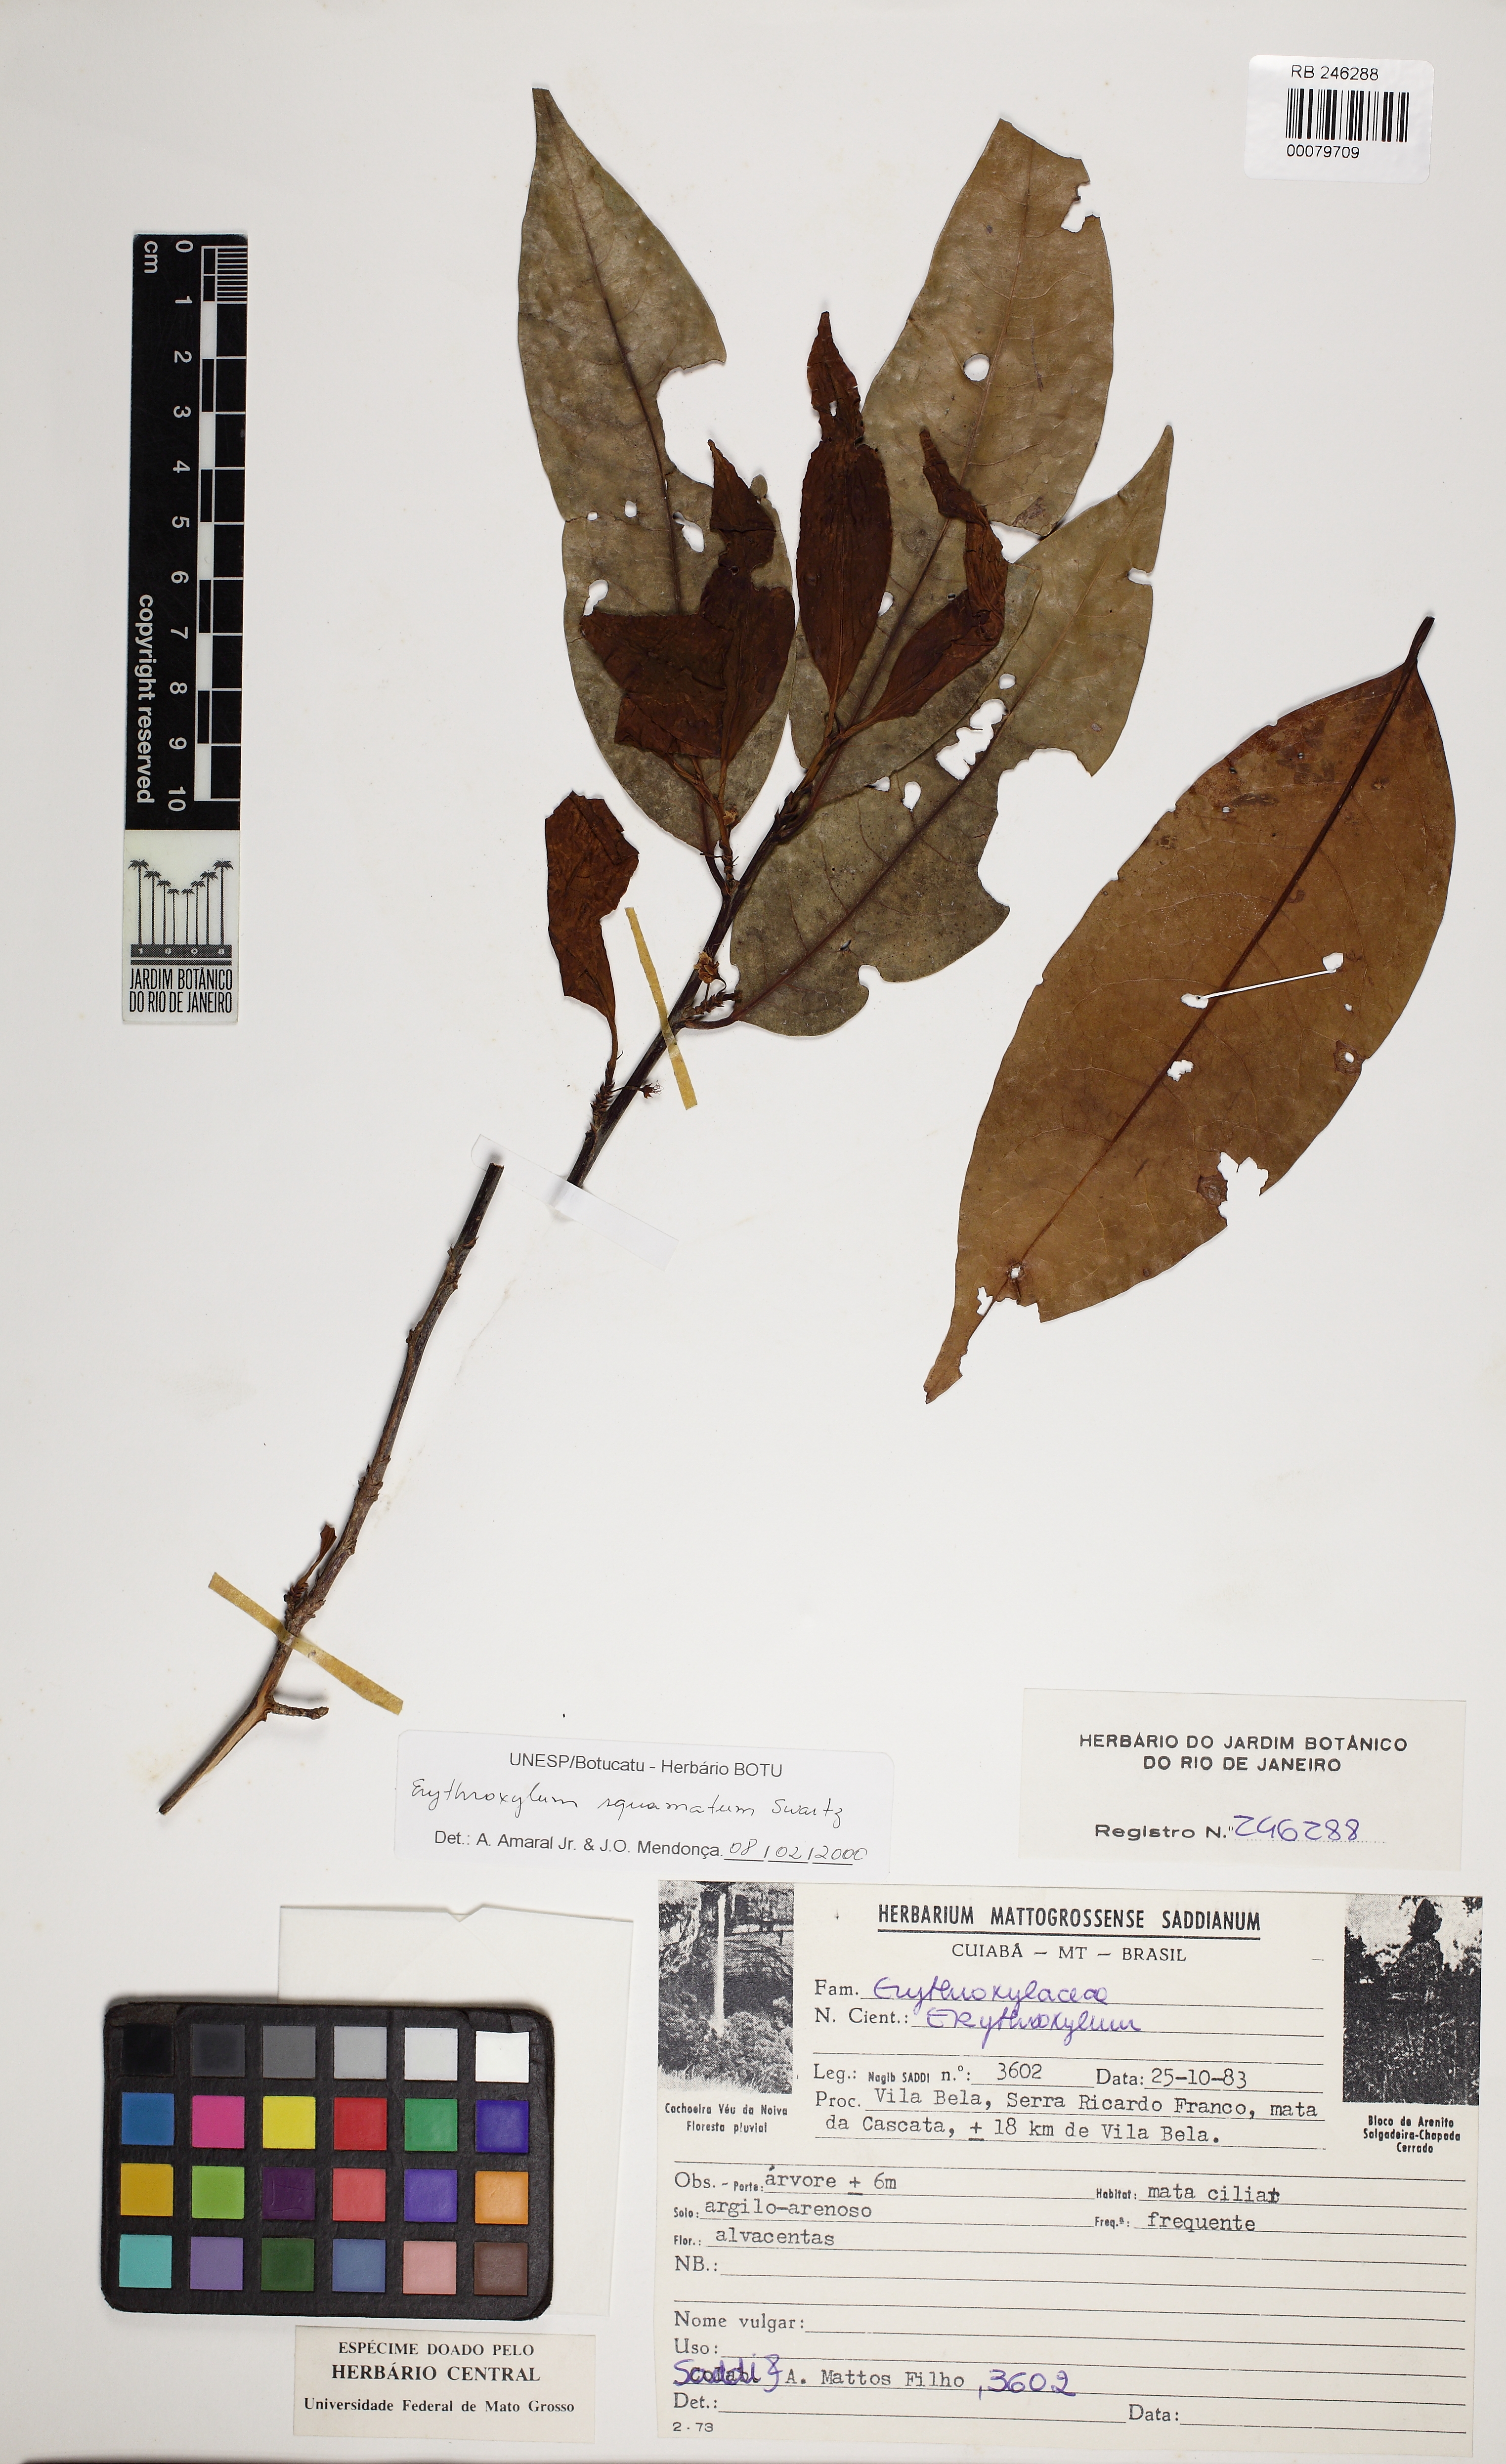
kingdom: Plantae
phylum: Tracheophyta
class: Magnoliopsida
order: Malpighiales
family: Erythroxylaceae
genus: Erythroxylum
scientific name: Erythroxylum squamatum
